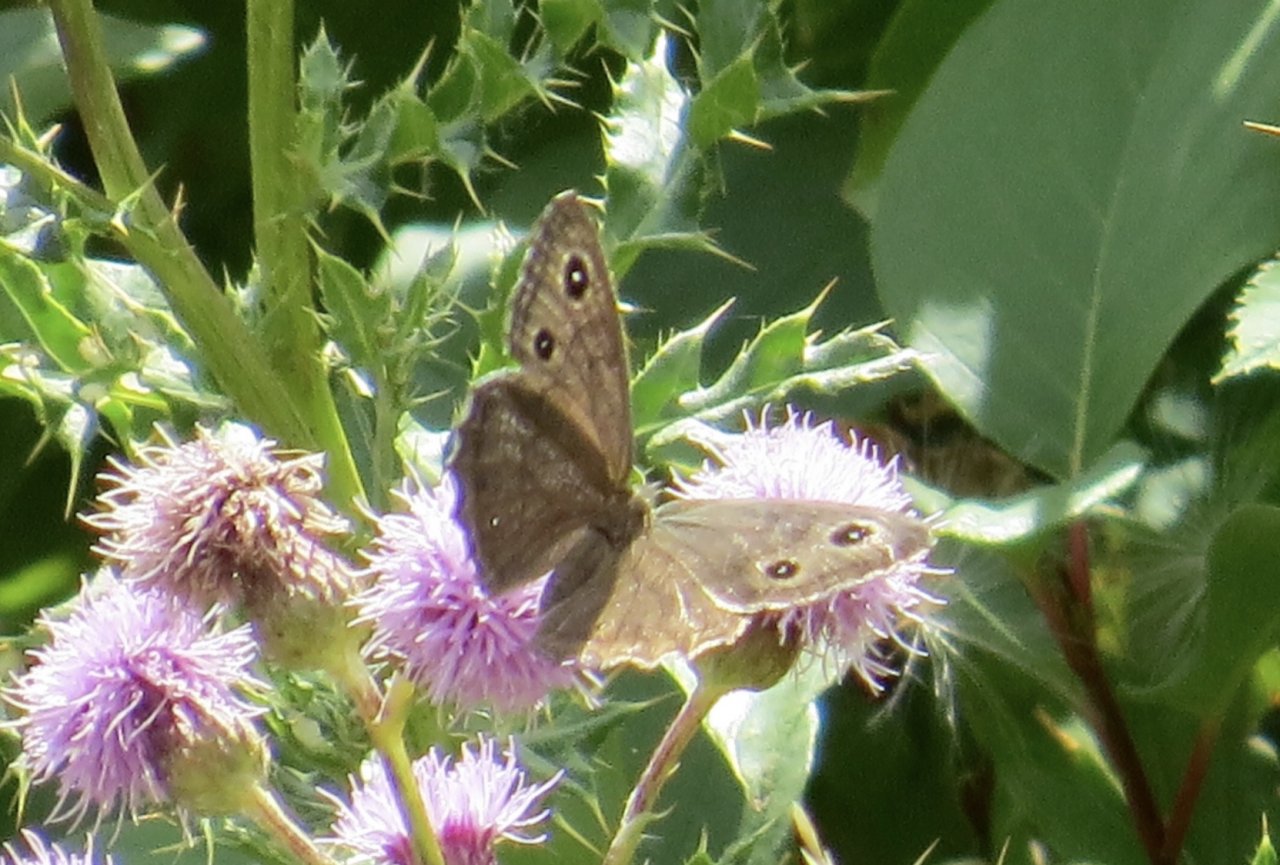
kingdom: Animalia
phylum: Arthropoda
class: Insecta
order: Lepidoptera
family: Nymphalidae
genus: Cercyonis
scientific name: Cercyonis sthenele
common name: Great Basin Wood-Nymph
